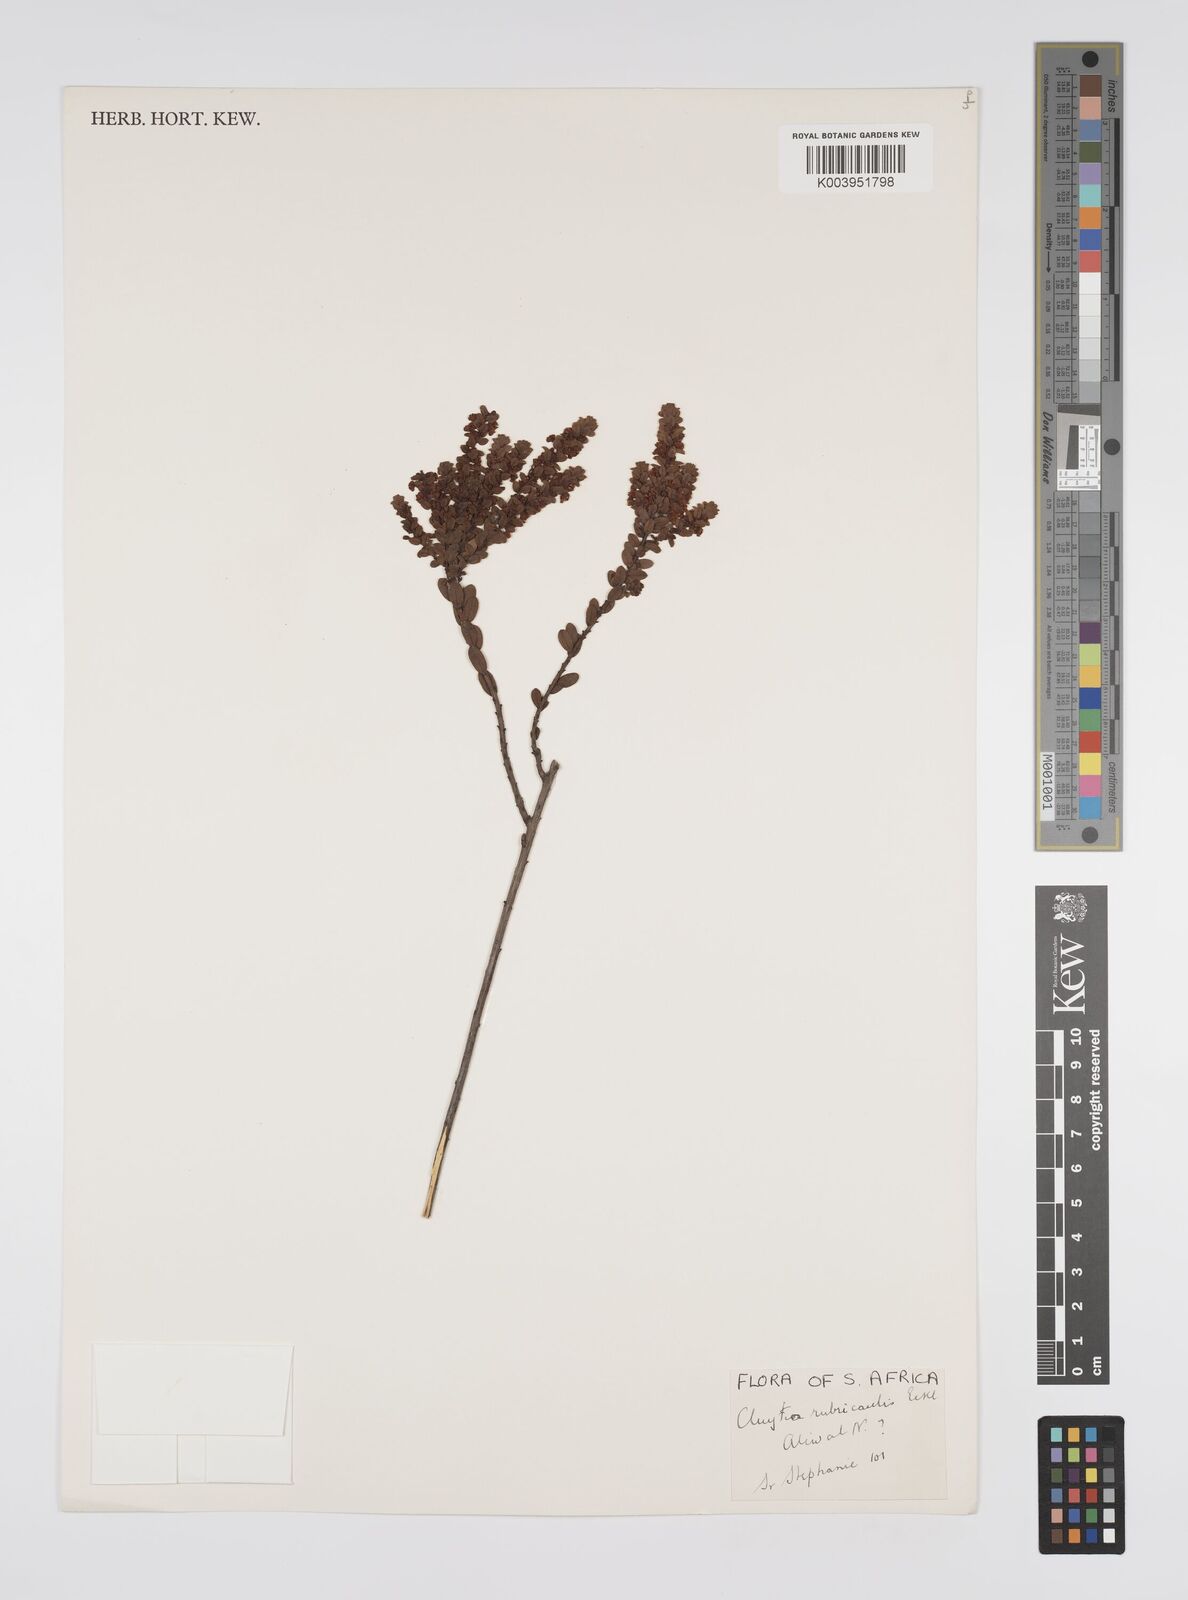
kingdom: Plantae
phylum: Tracheophyta
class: Magnoliopsida
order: Malpighiales
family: Peraceae
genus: Clutia
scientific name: Clutia rubricaulis
